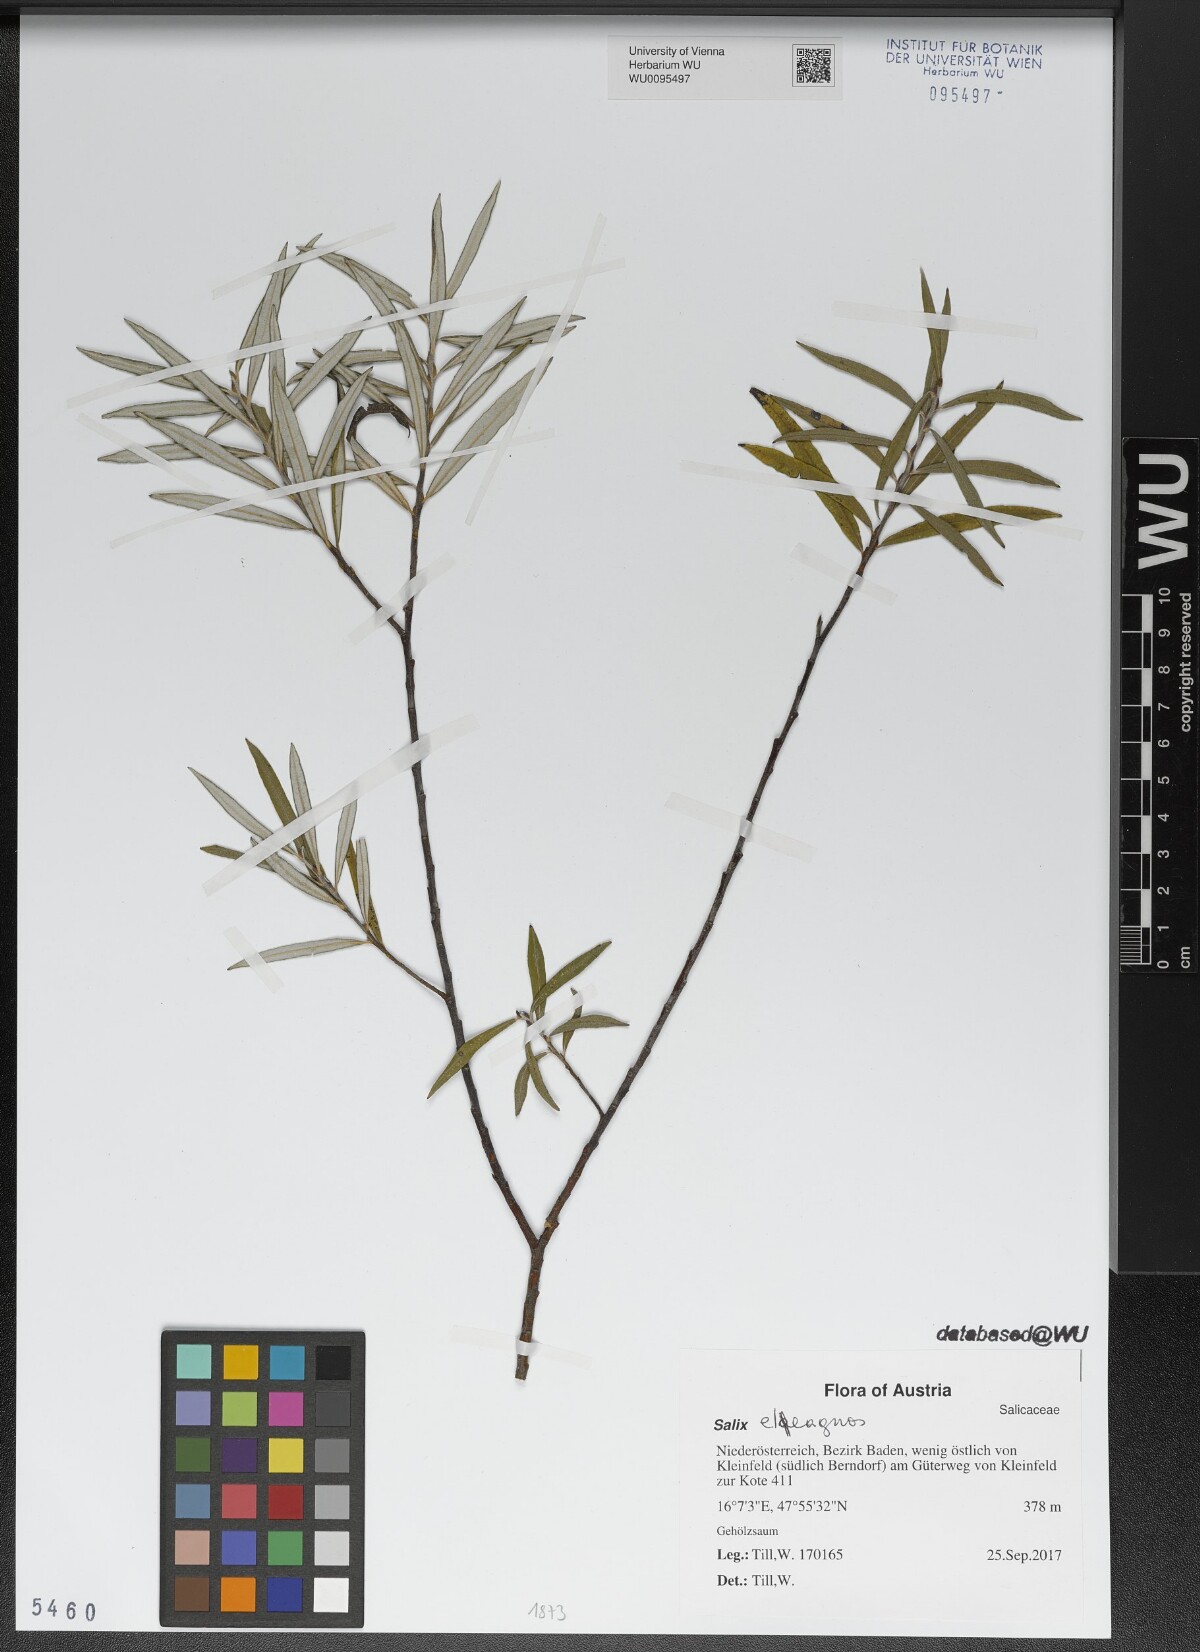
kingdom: Plantae
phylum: Tracheophyta
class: Magnoliopsida
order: Malpighiales
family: Salicaceae
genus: Salix
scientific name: Salix eleagnos
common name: Elaeagnus willow
